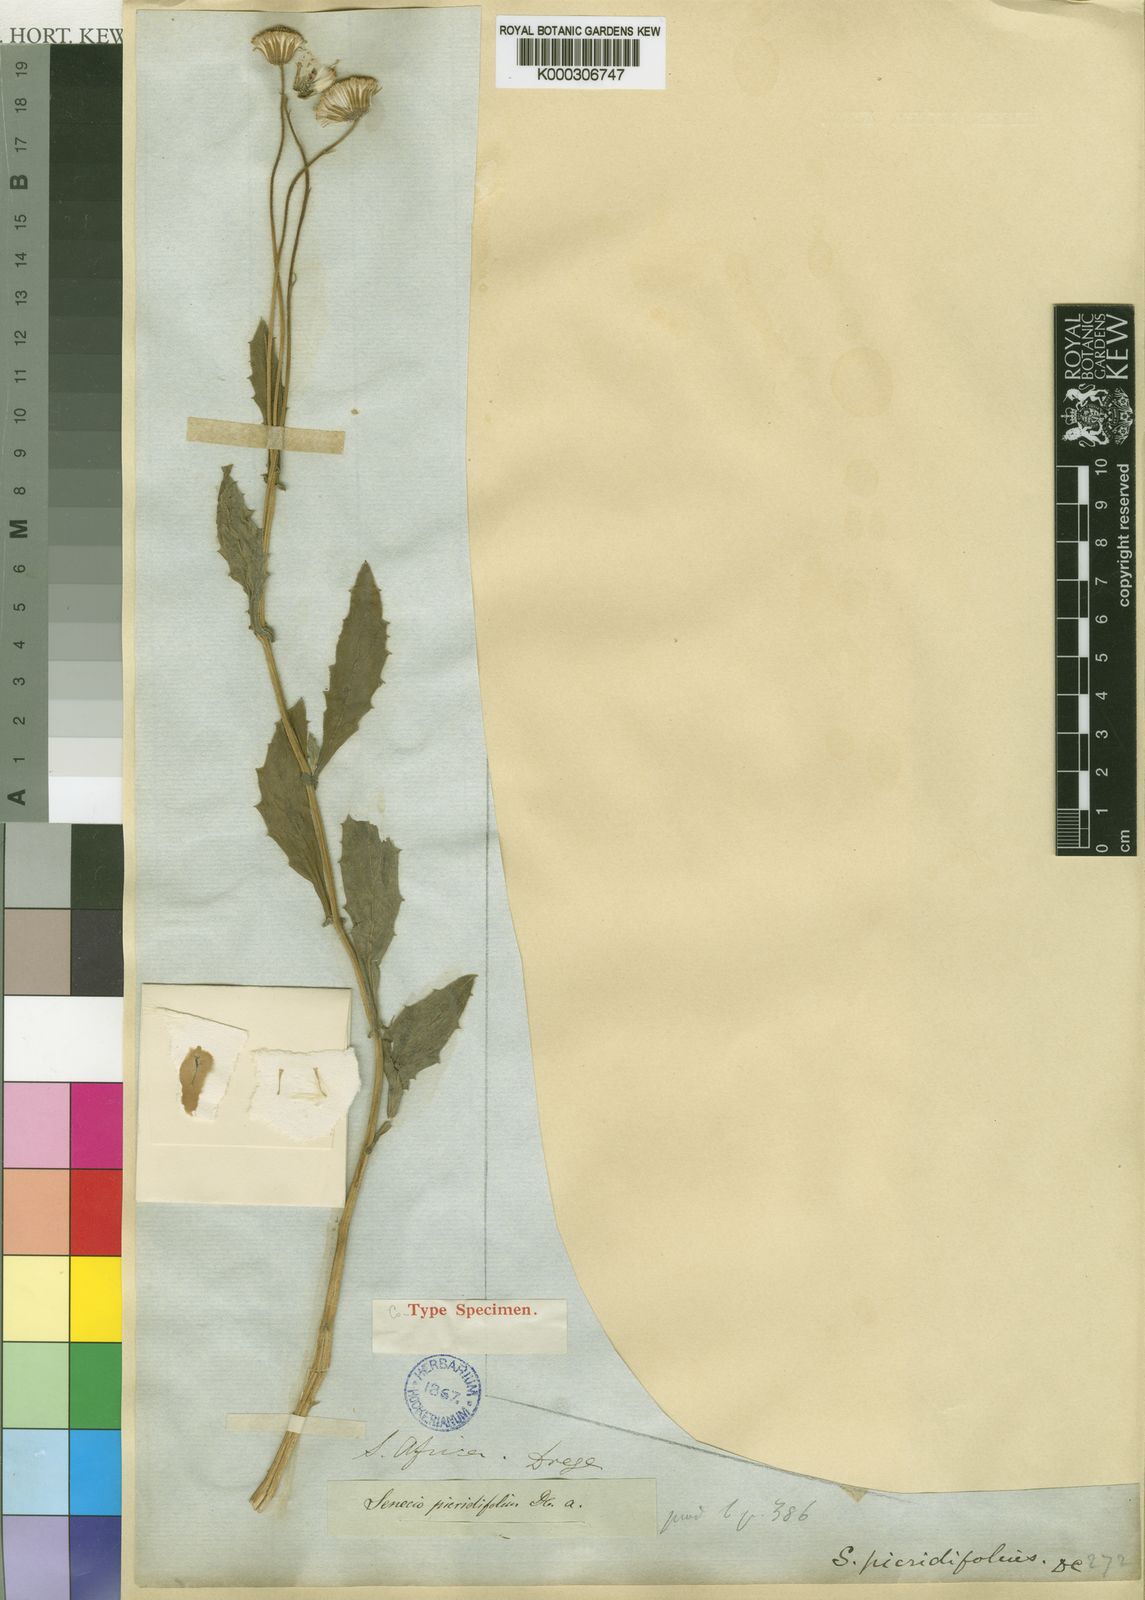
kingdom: Plantae
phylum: Tracheophyta
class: Magnoliopsida
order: Asterales
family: Asteraceae
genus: Crassocephalum
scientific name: Crassocephalum picridifolium
